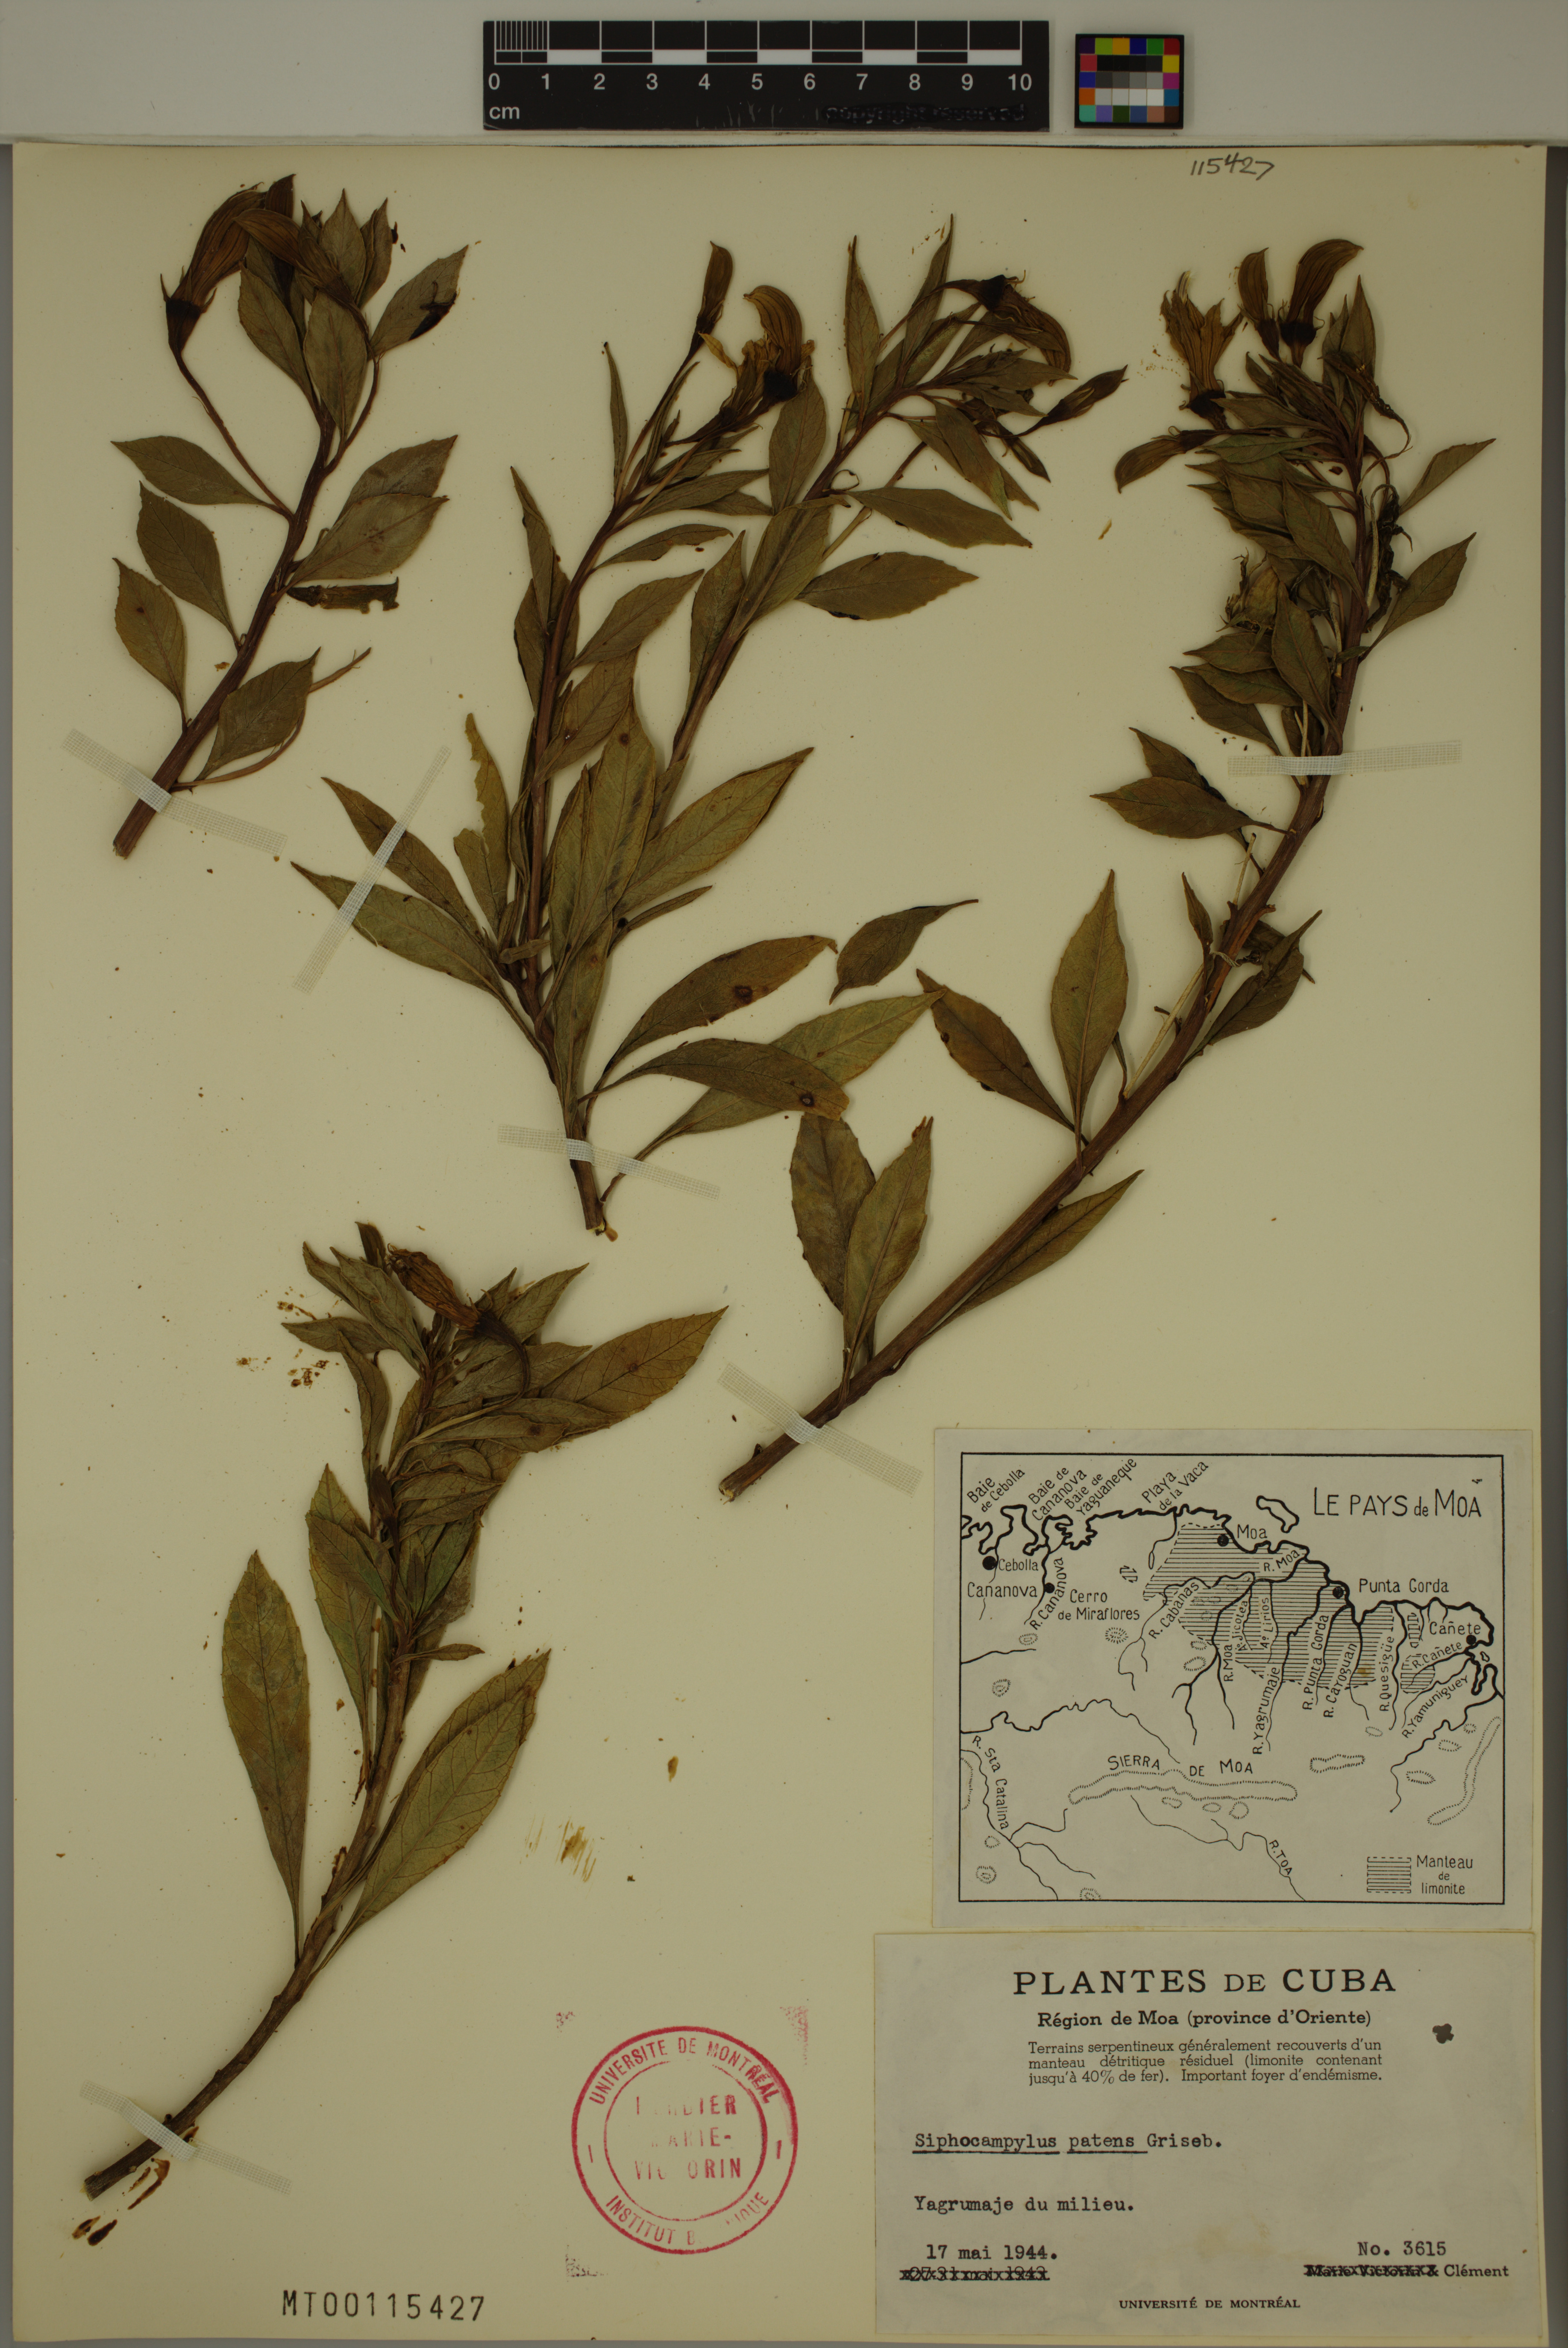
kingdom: Plantae
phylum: Tracheophyta
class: Magnoliopsida
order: Asterales
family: Campanulaceae
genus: Siphocampylus
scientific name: Siphocampylus patens
